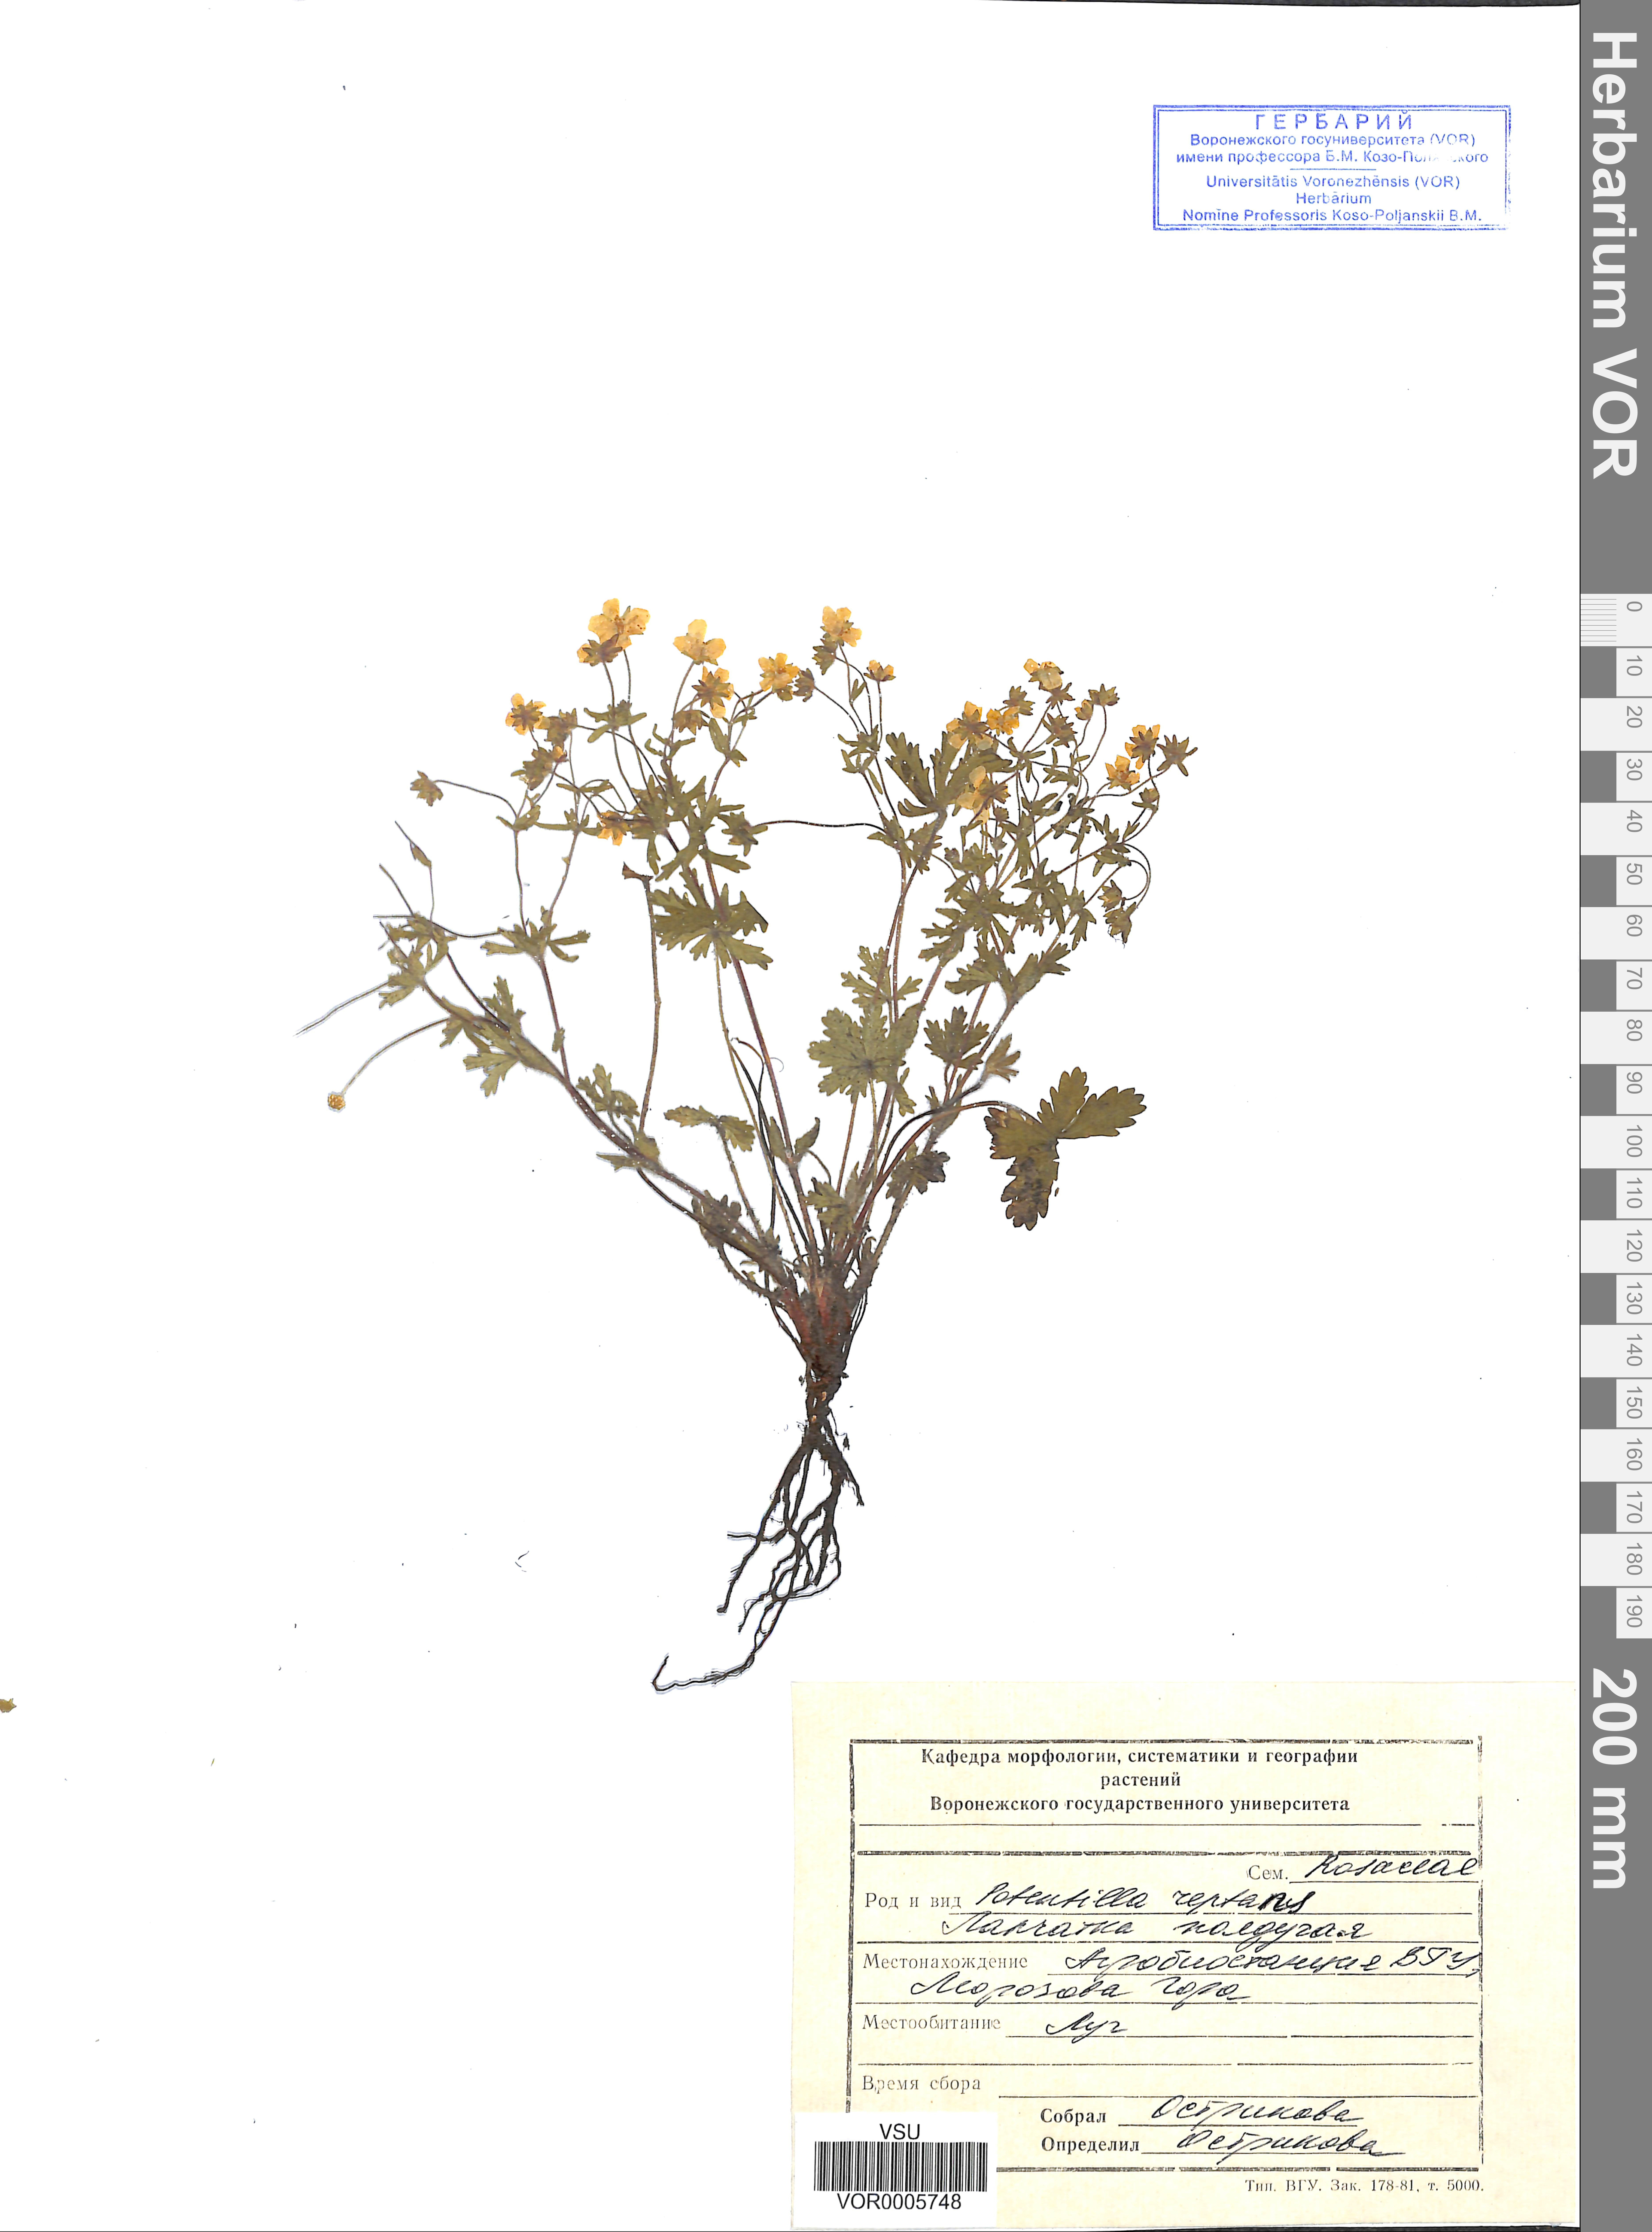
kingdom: Plantae
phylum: Tracheophyta
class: Magnoliopsida
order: Rosales
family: Rosaceae
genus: Potentilla
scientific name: Potentilla heptaphylla
